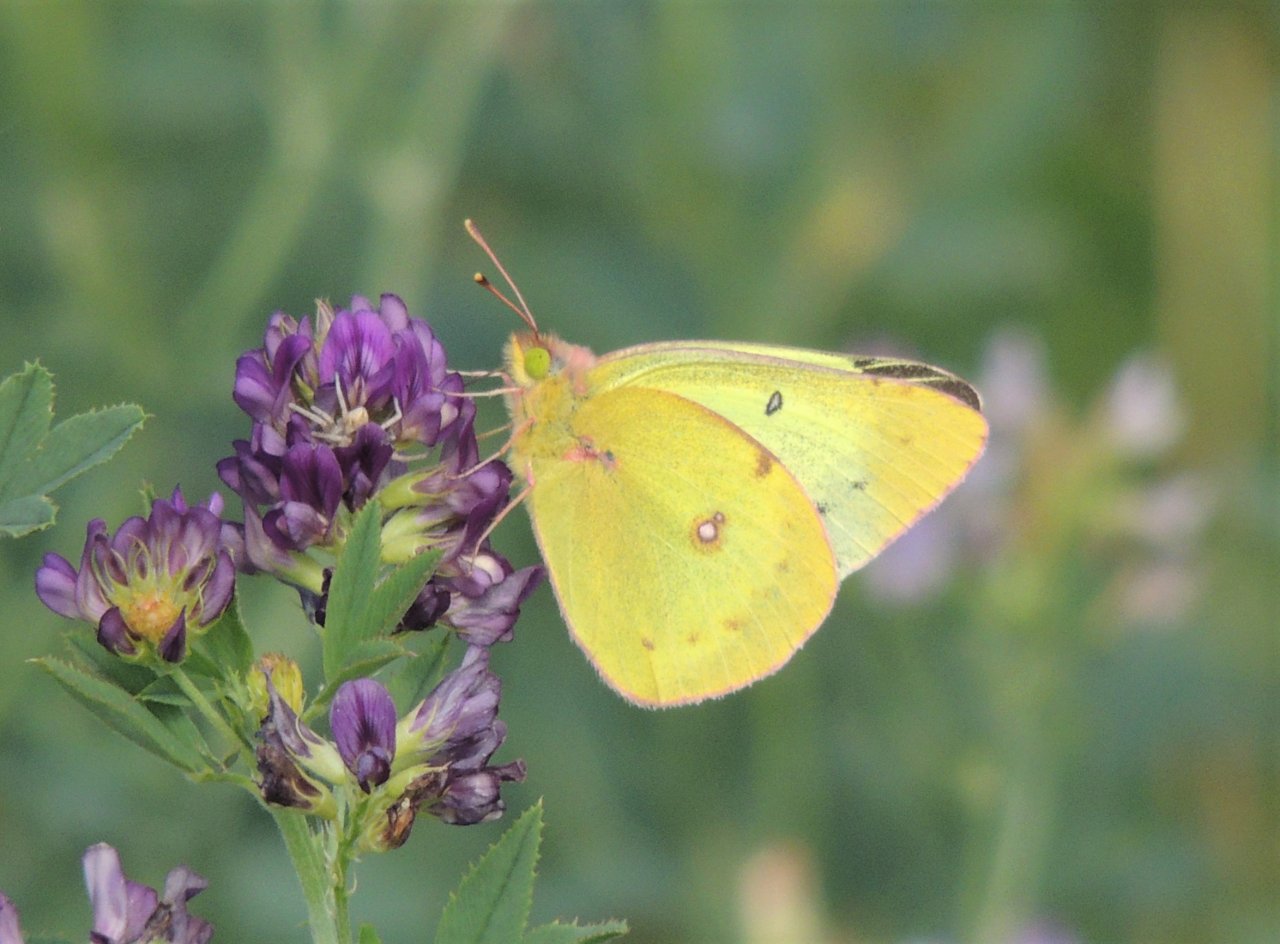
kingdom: Animalia
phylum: Arthropoda
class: Insecta
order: Lepidoptera
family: Pieridae
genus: Colias
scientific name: Colias eurytheme
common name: Orange Sulphur
